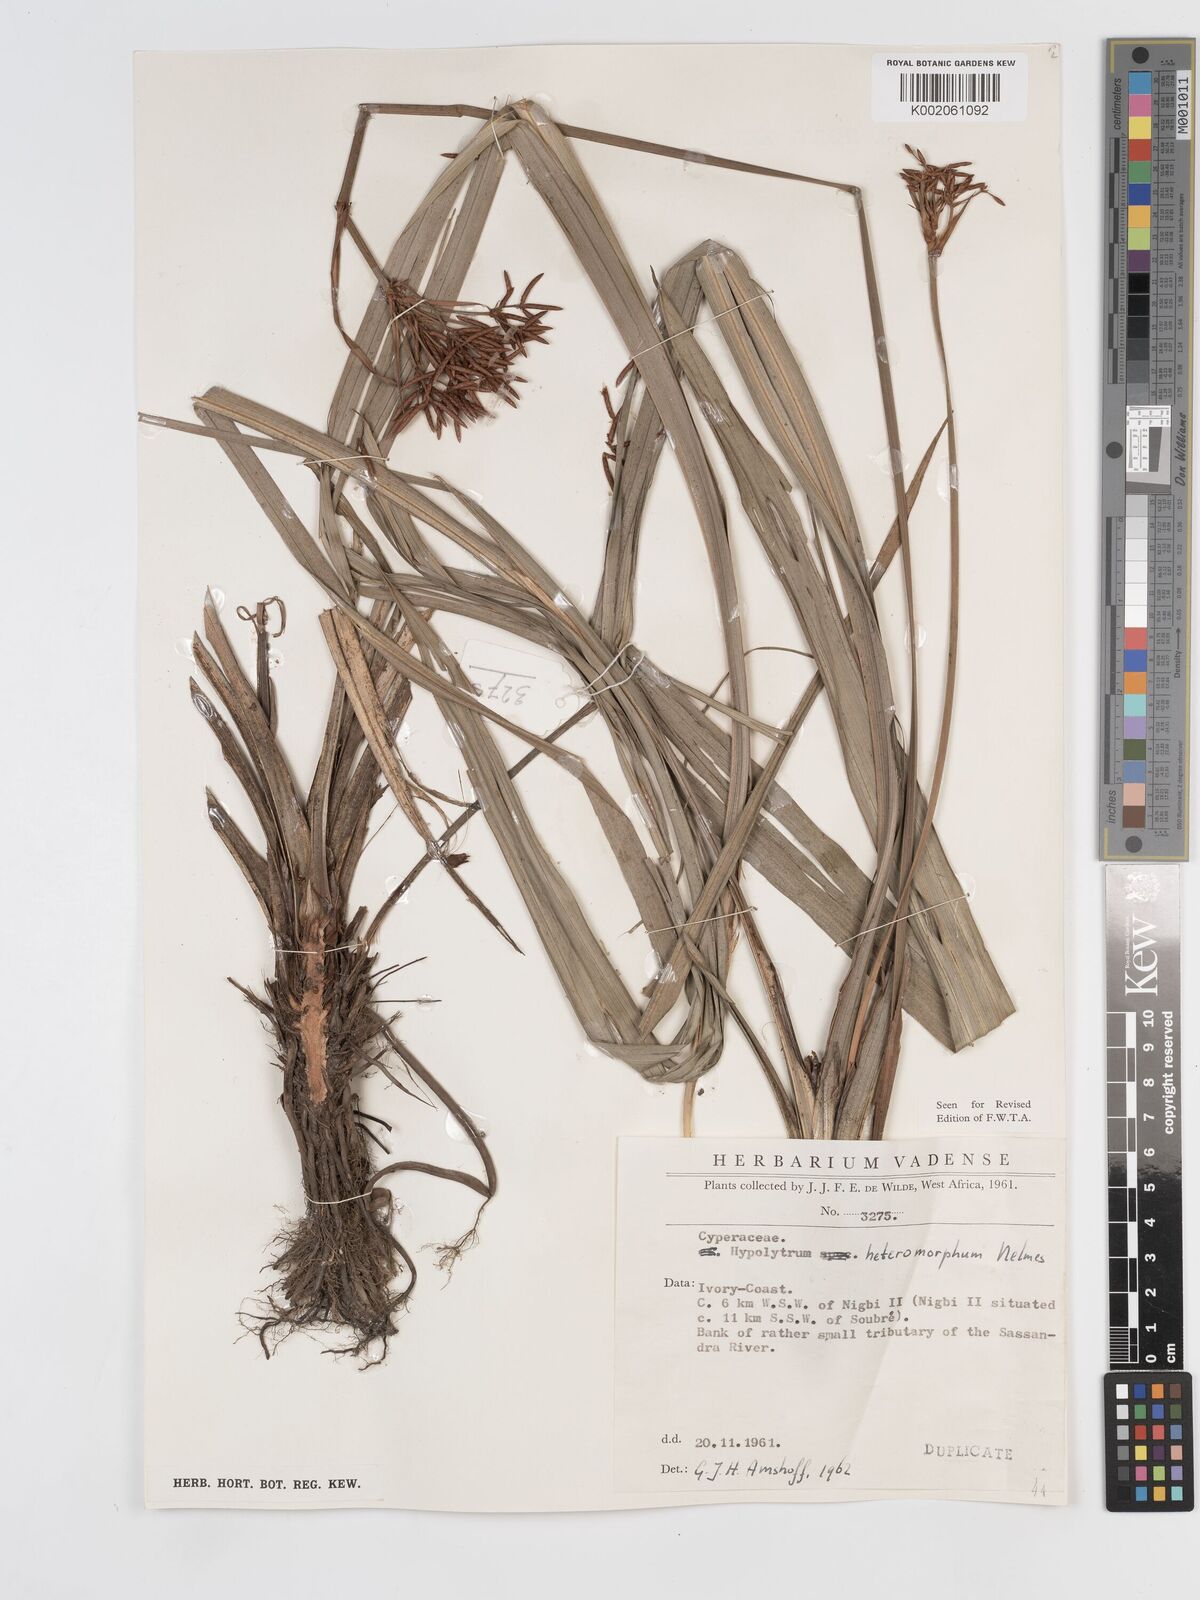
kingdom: Plantae
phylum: Tracheophyta
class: Liliopsida
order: Poales
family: Cyperaceae
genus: Hypolytrum
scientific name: Hypolytrum heteromorphum
